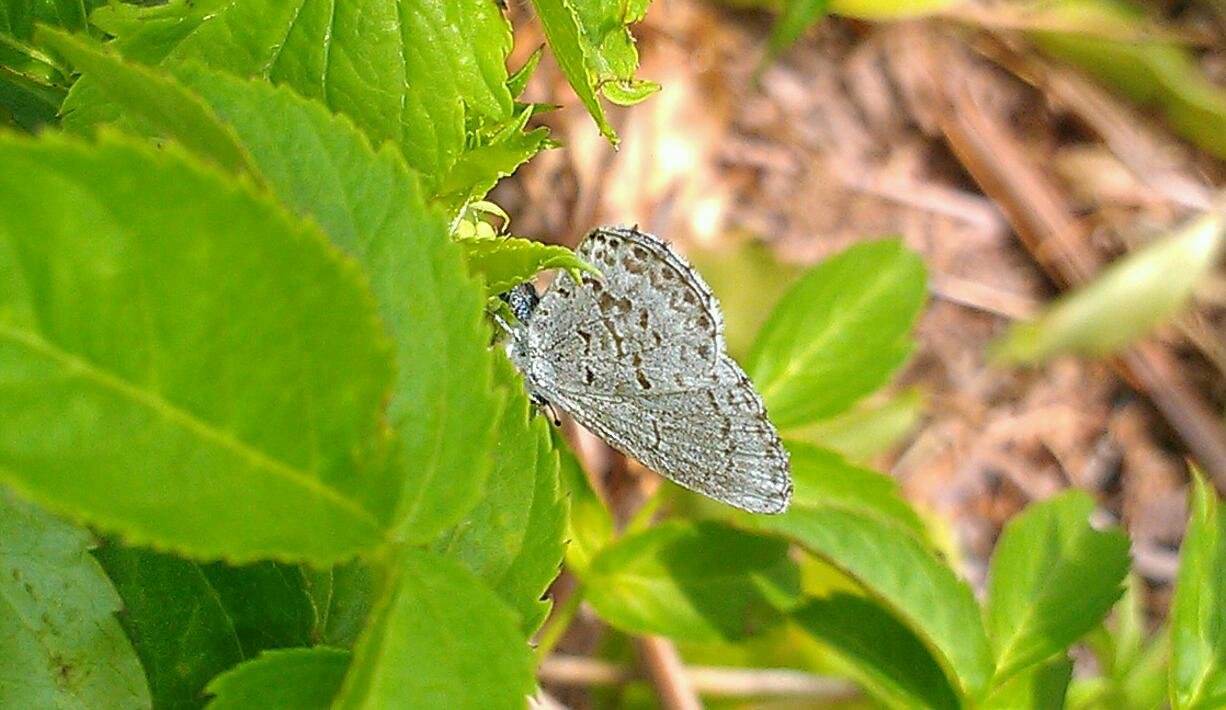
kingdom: Animalia
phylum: Arthropoda
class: Insecta
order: Lepidoptera
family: Lycaenidae
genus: Celastrina
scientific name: Celastrina lucia
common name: Northern Spring Azure
